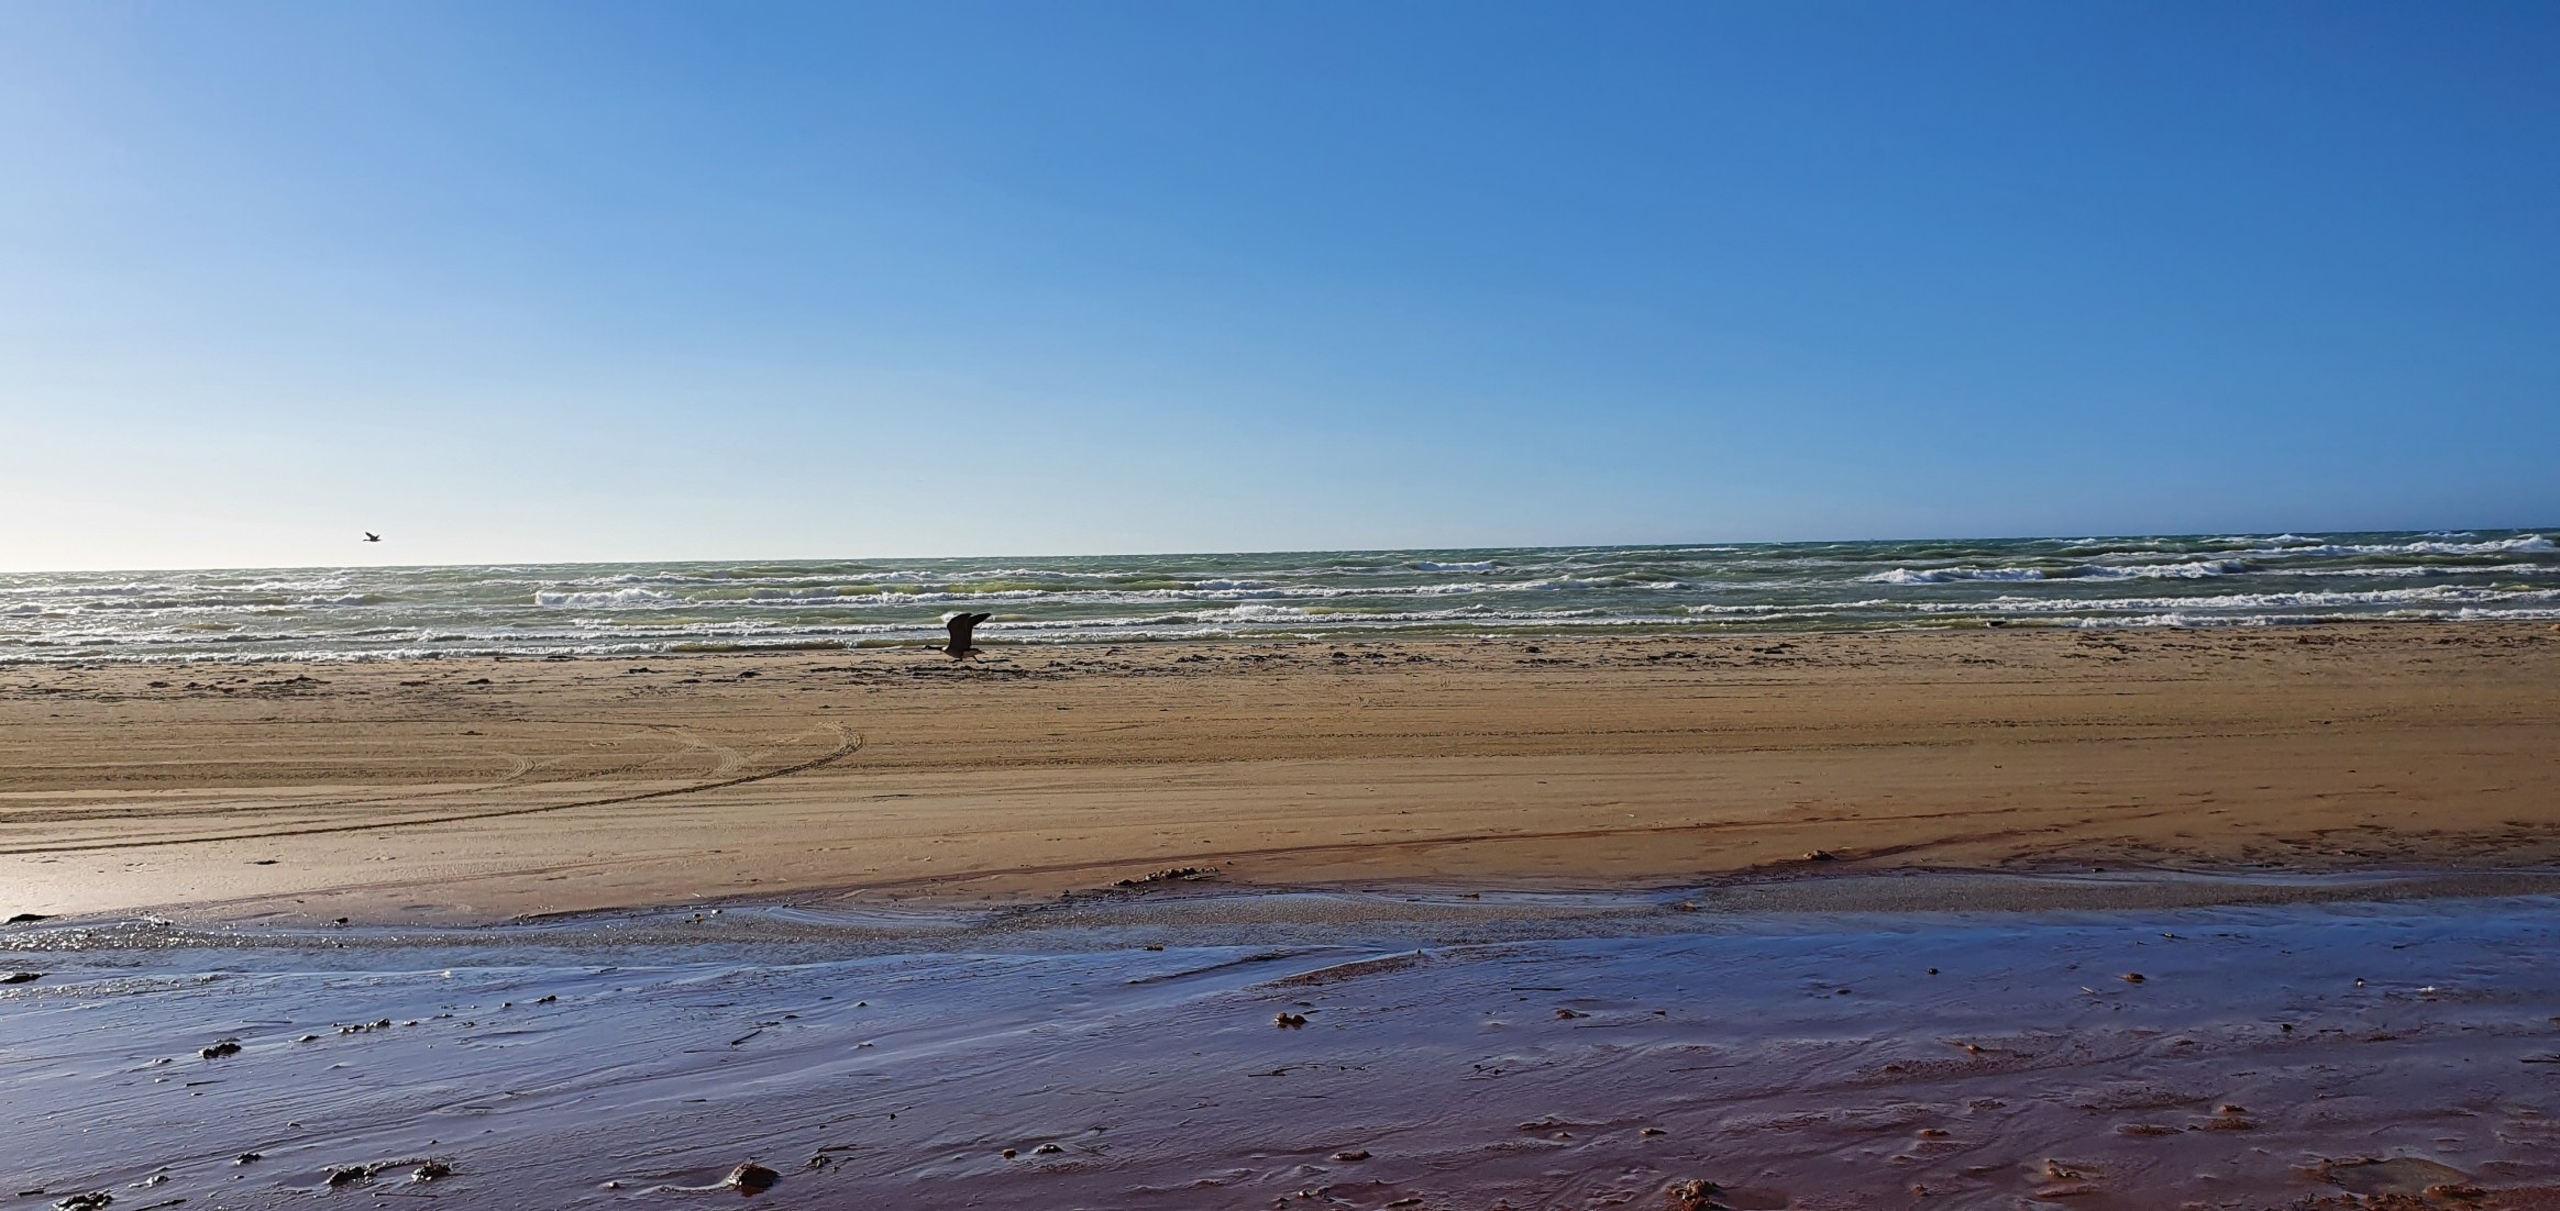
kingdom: Animalia
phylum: Chordata
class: Aves
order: Anseriformes
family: Anatidae
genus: Branta
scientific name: Branta canadensis
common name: Canadagås
